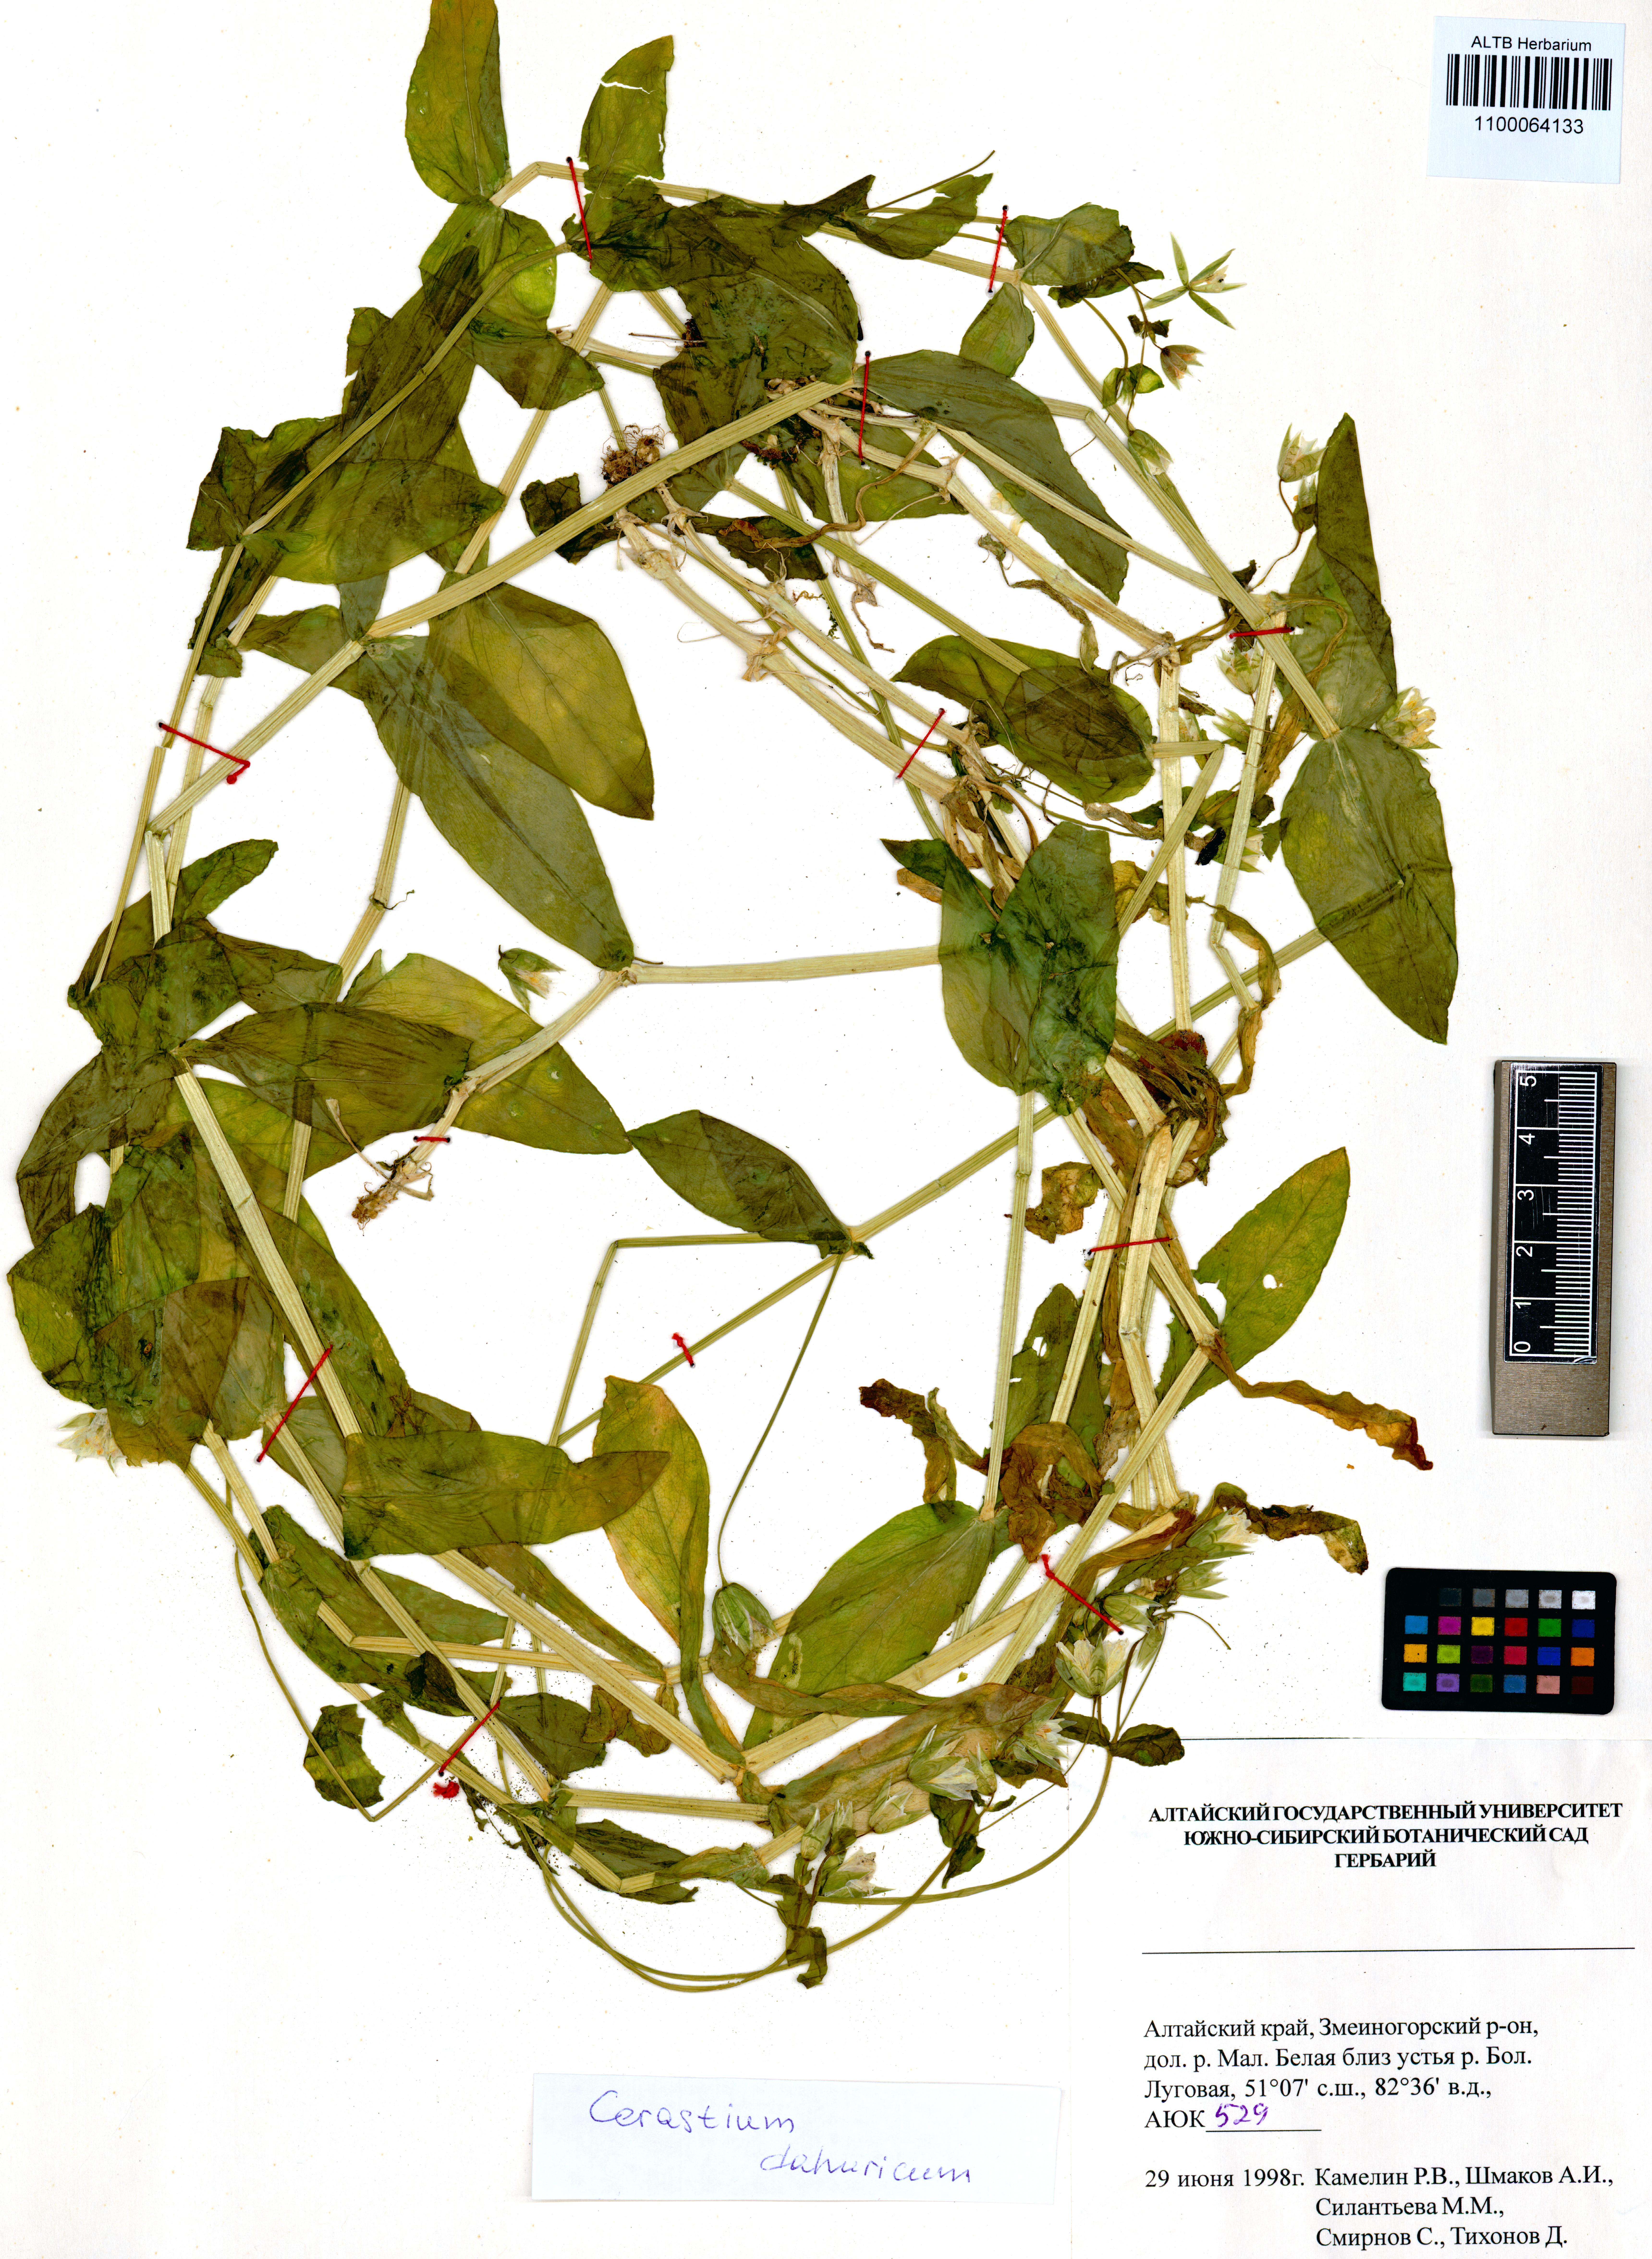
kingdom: Plantae
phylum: Tracheophyta
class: Magnoliopsida
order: Caryophyllales
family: Caryophyllaceae
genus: Dichodon
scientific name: Dichodon davuricum
